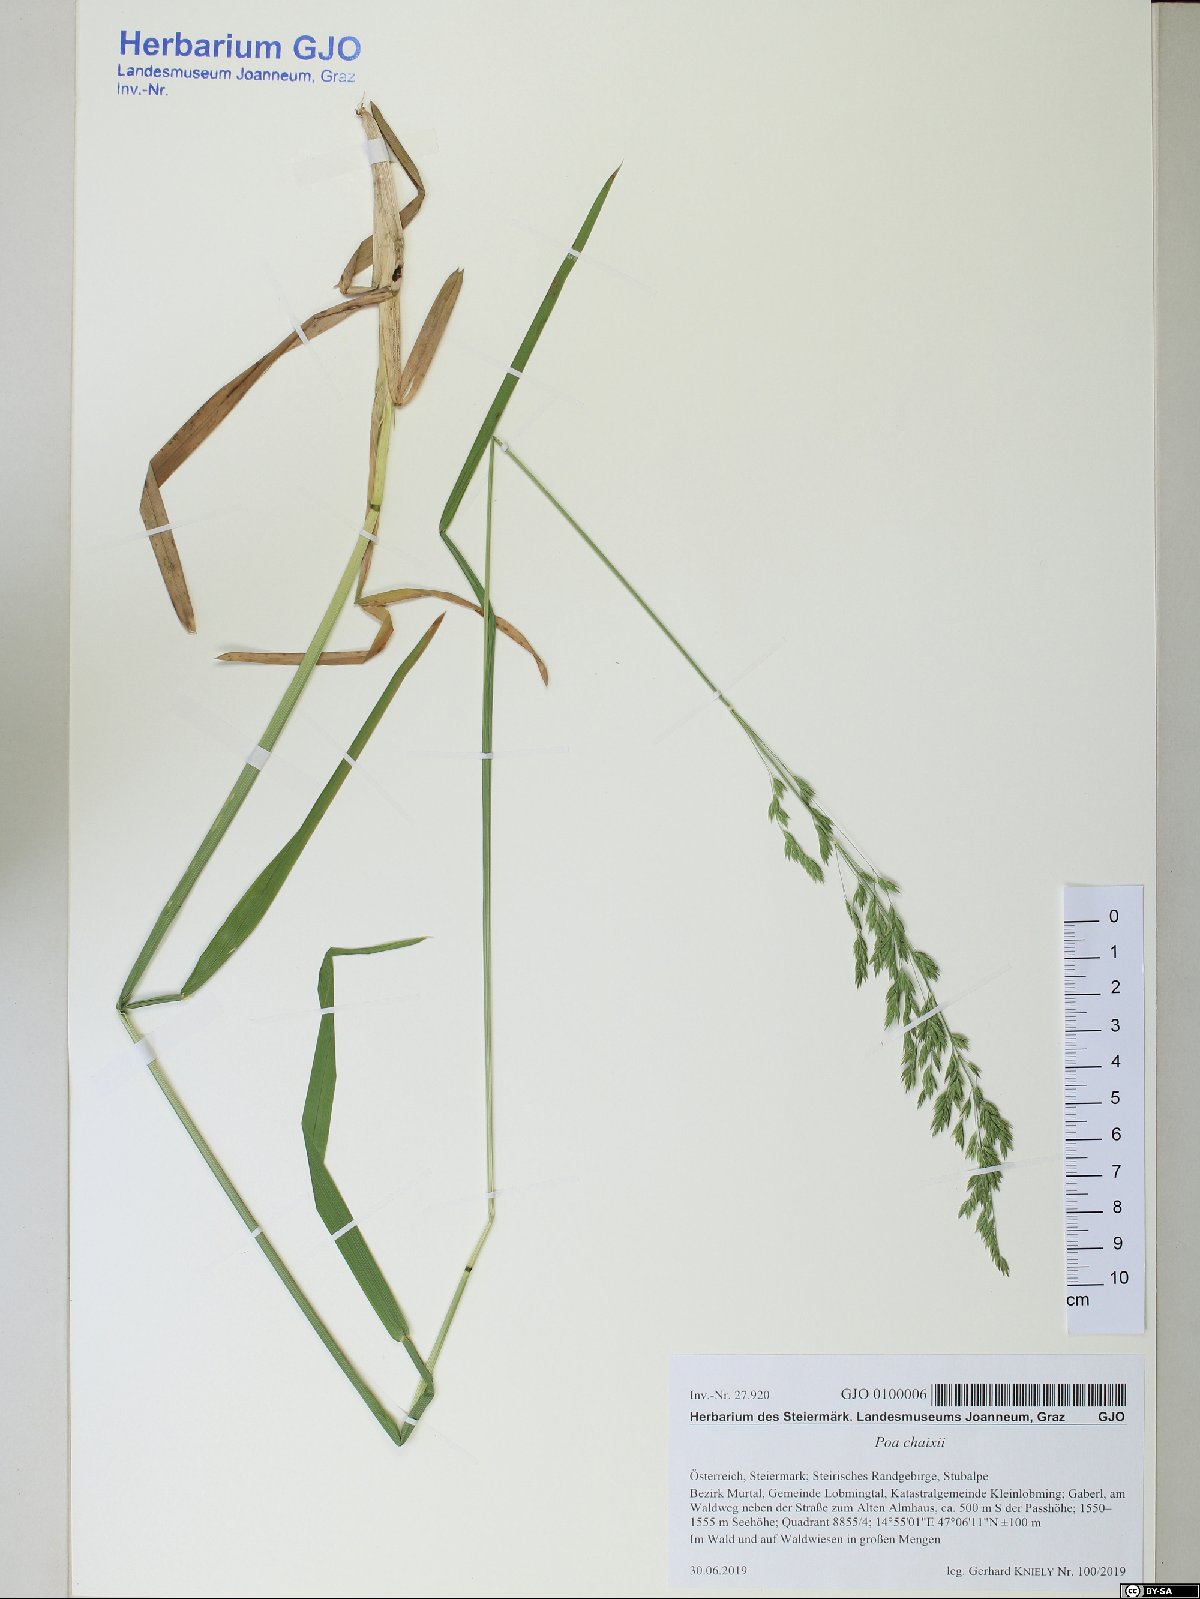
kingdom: Plantae
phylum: Tracheophyta
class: Liliopsida
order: Poales
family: Poaceae
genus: Poa
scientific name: Poa chaixii
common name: Broad-leaved meadow-grass
